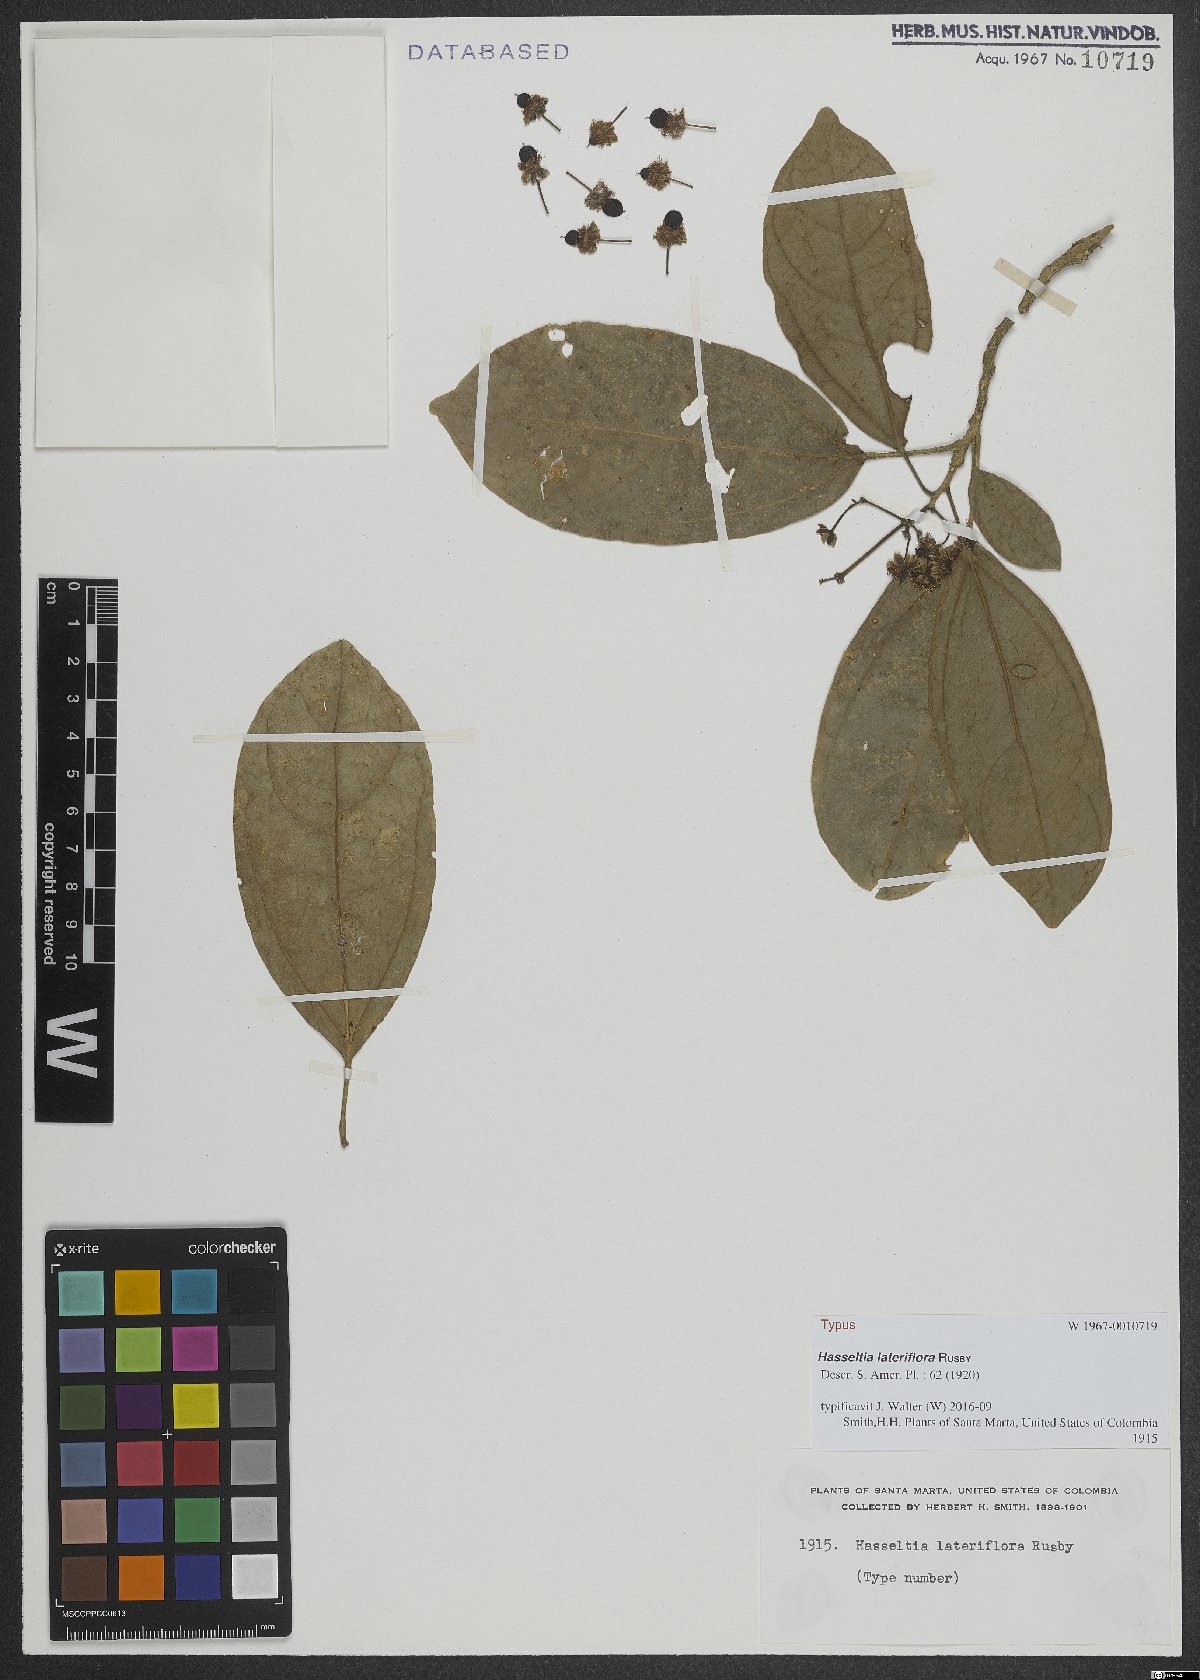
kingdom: Plantae
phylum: Tracheophyta
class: Magnoliopsida
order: Malpighiales
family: Salicaceae
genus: Hasseltia
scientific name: Hasseltia lateriflora
